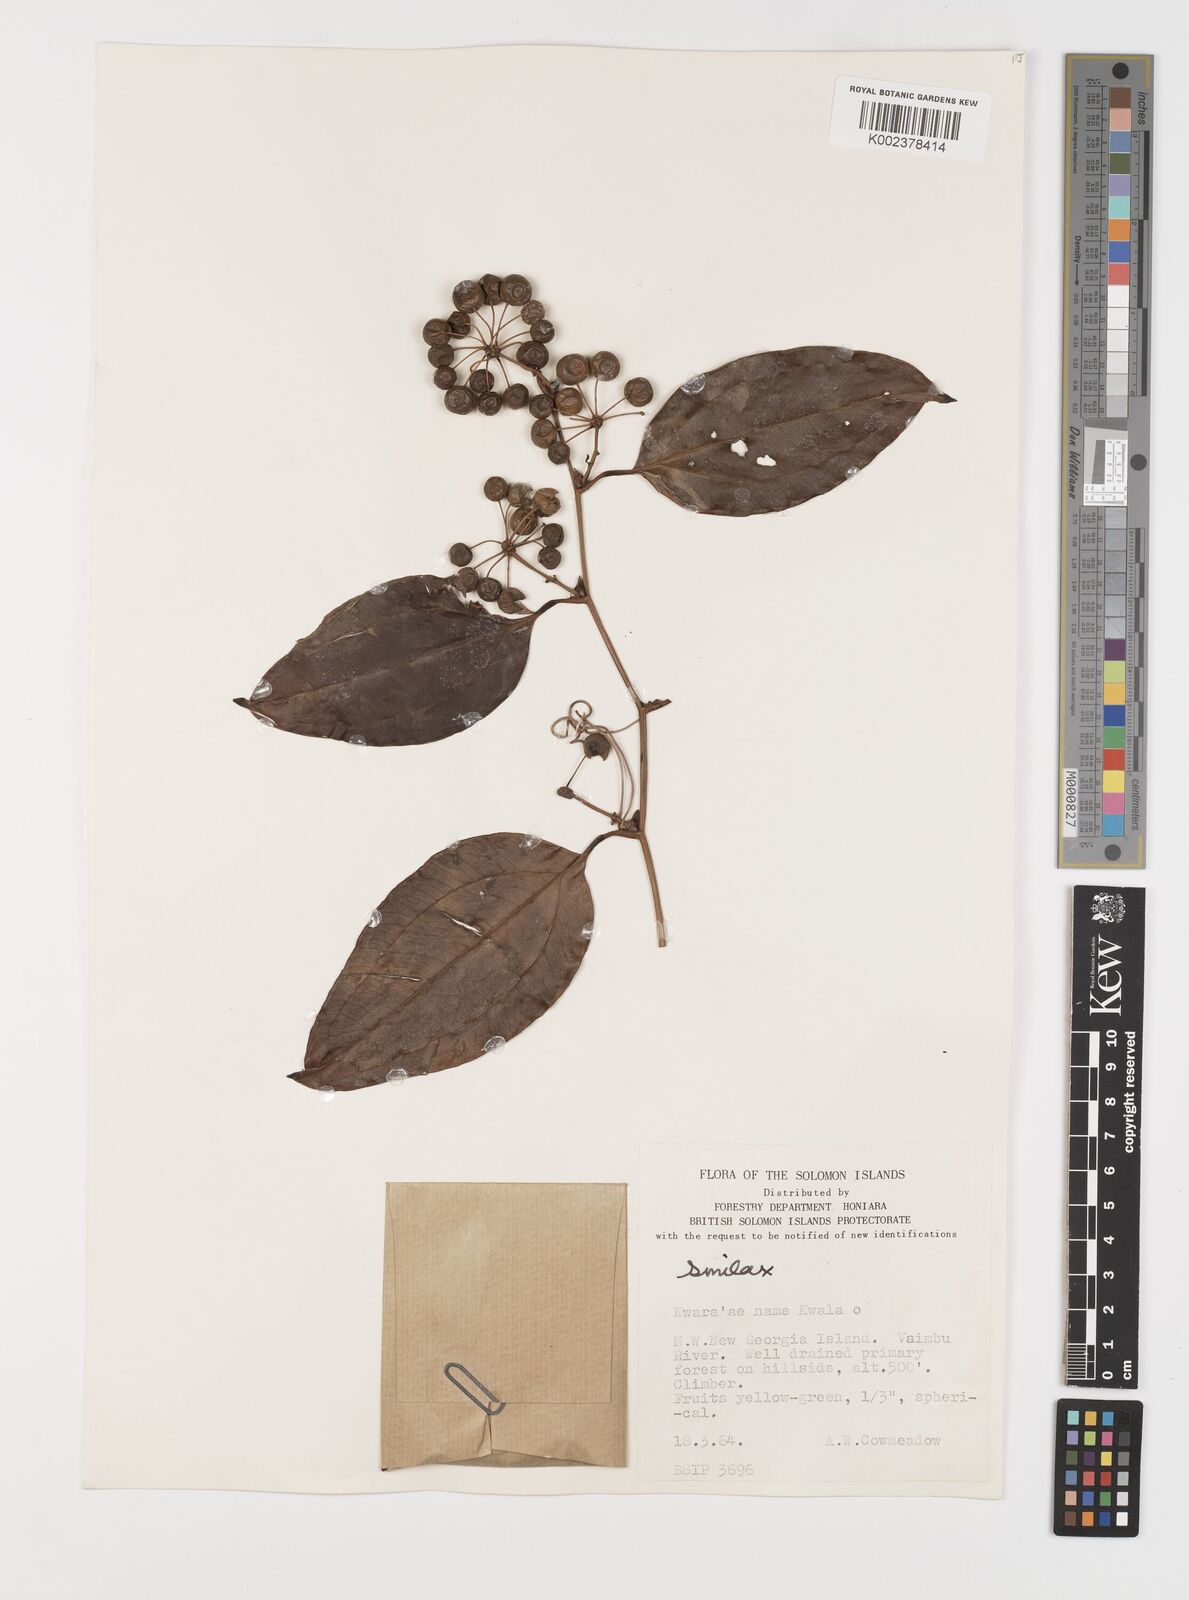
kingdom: Plantae
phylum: Tracheophyta
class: Liliopsida
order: Liliales
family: Smilacaceae
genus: Smilax
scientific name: Smilax
